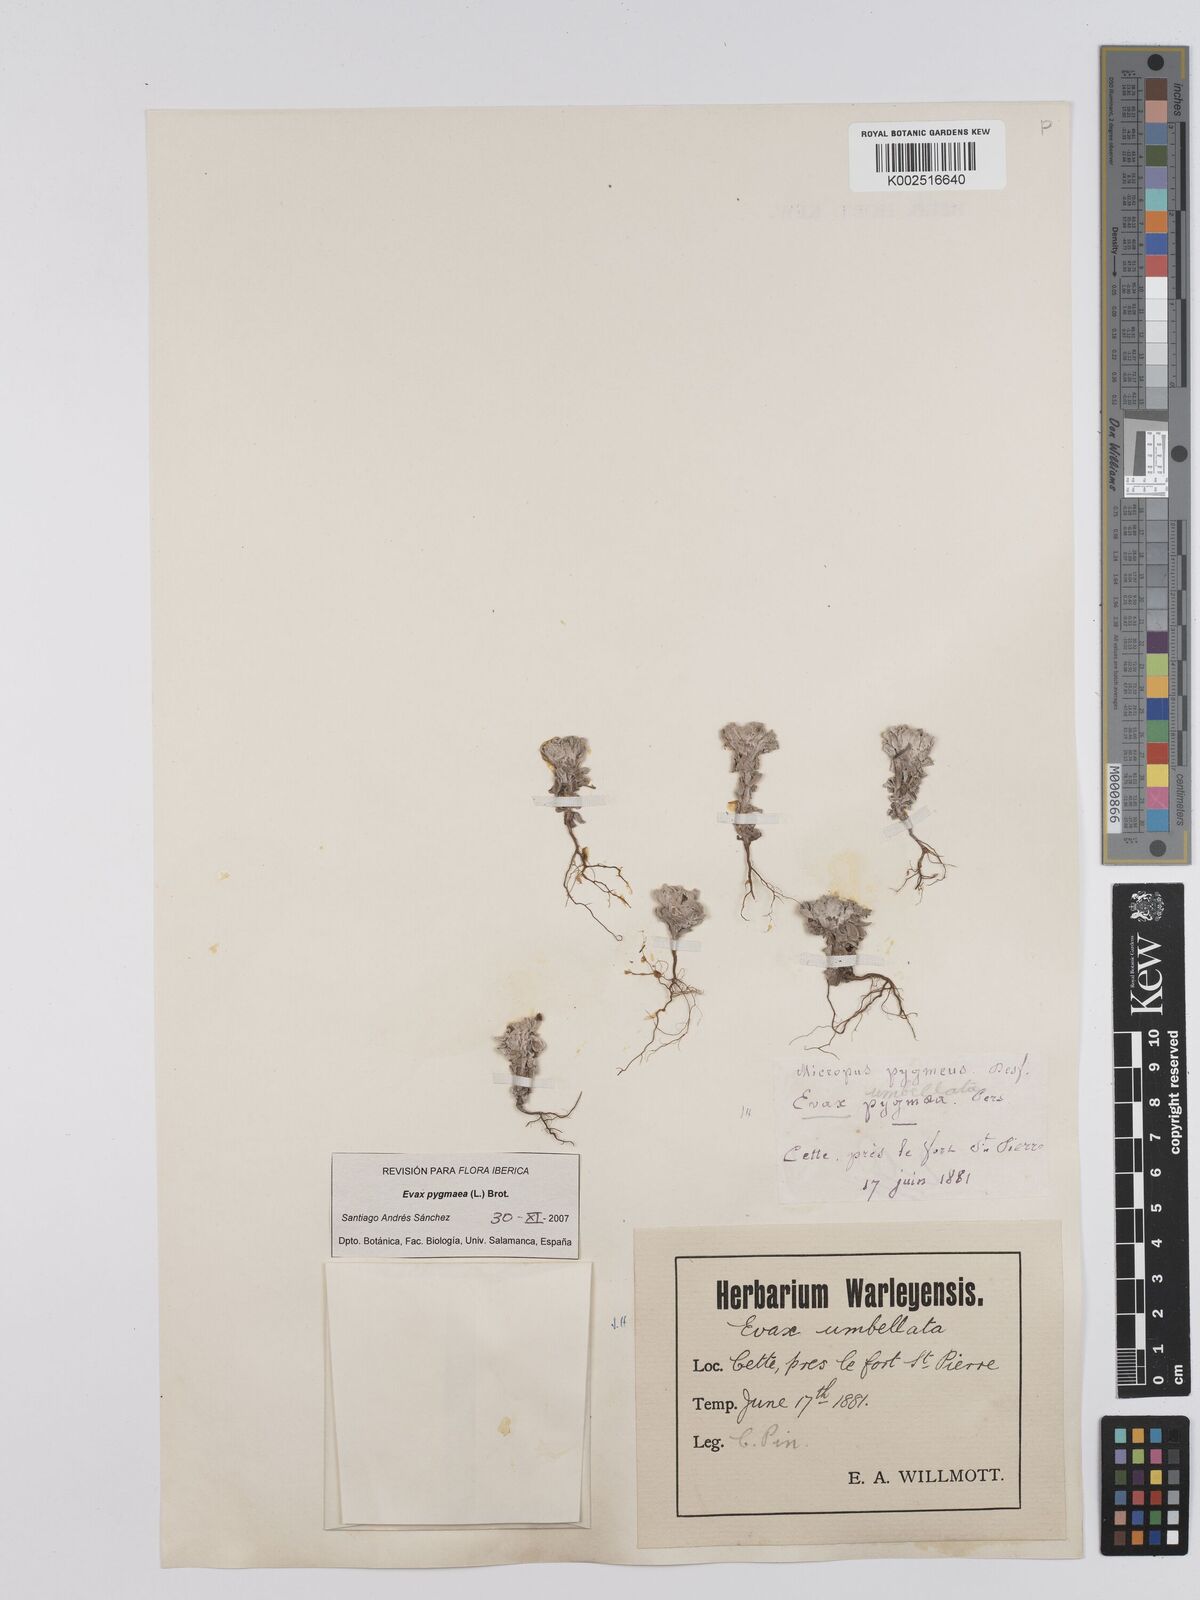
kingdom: Plantae
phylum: Tracheophyta
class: Magnoliopsida
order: Asterales
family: Asteraceae
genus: Filago
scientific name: Filago pygmaea
